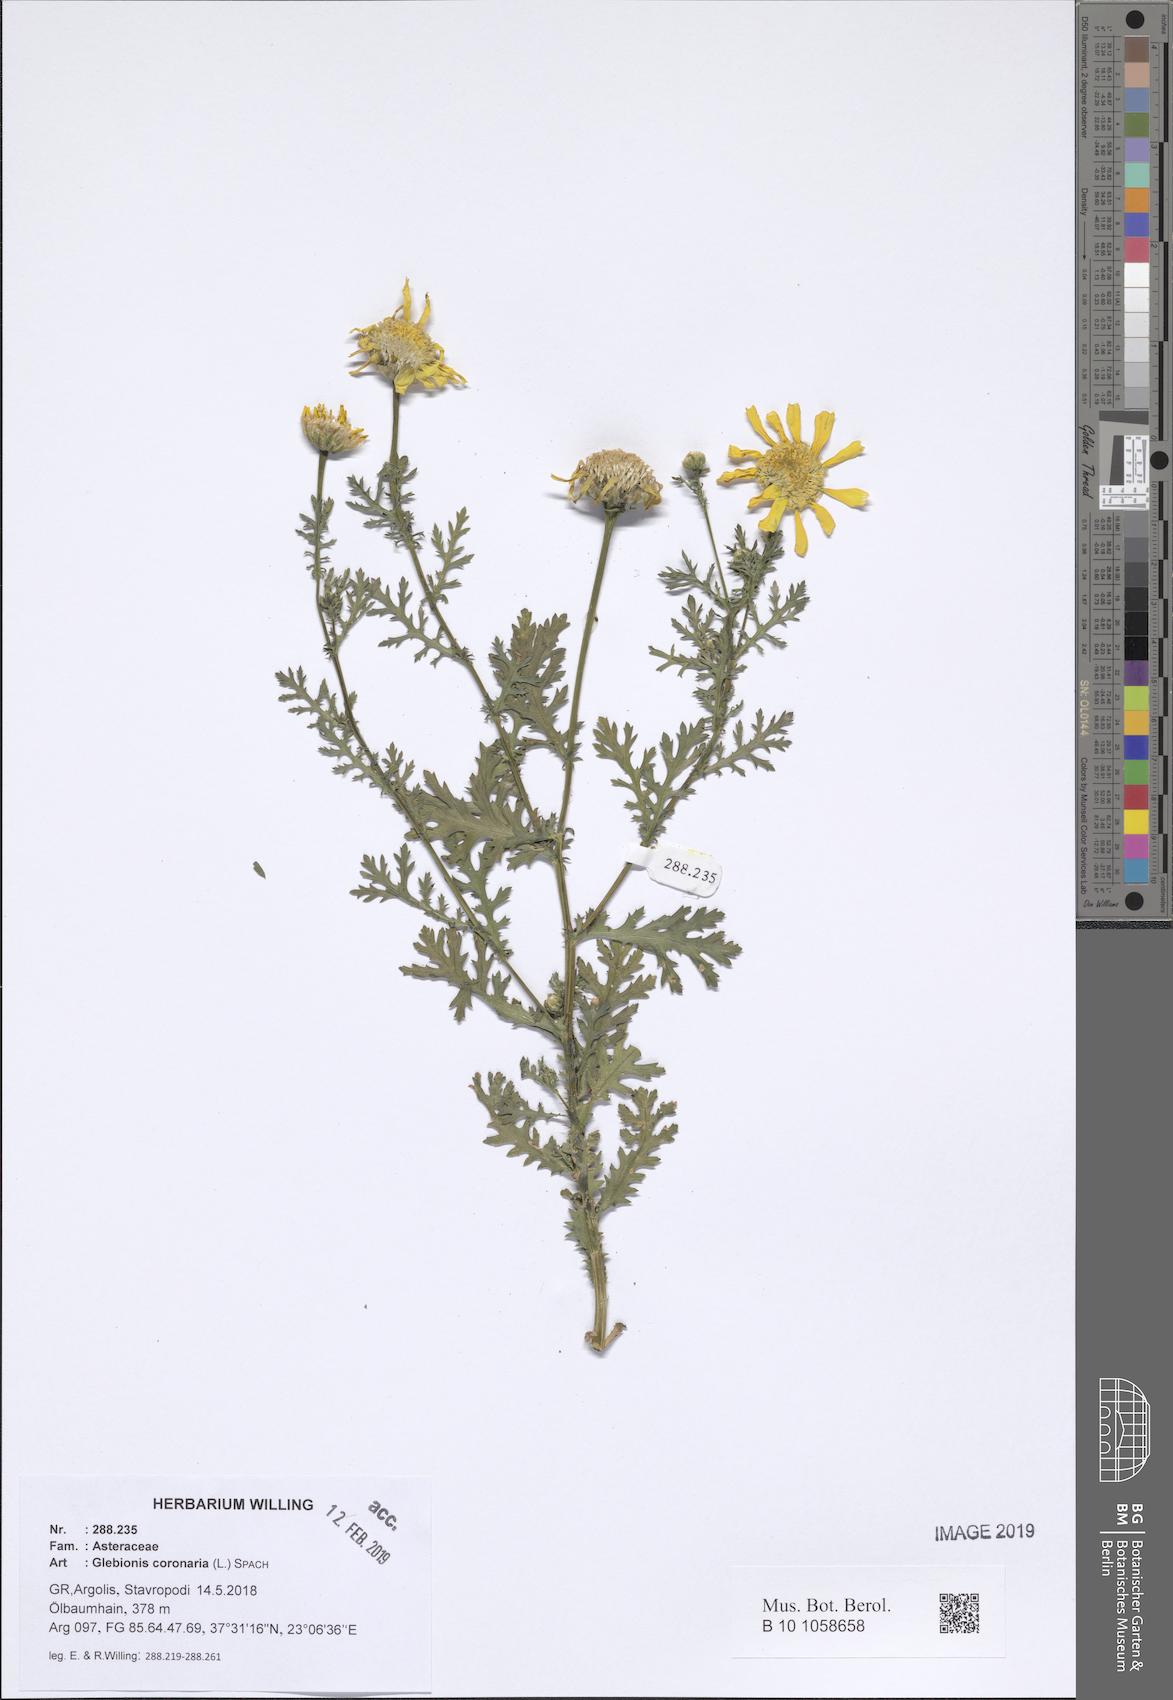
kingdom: Plantae
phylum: Tracheophyta
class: Magnoliopsida
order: Asterales
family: Asteraceae
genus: Glebionis
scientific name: Glebionis coronaria
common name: Crowndaisy
